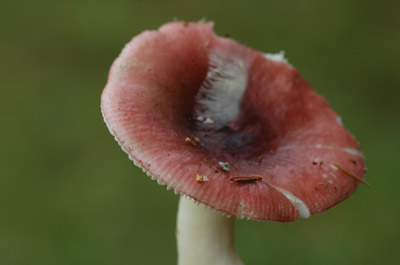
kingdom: Fungi
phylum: Basidiomycota
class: Agaricomycetes
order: Russulales
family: Russulaceae
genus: Russula
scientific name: Russula nitida
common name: året skørhat
